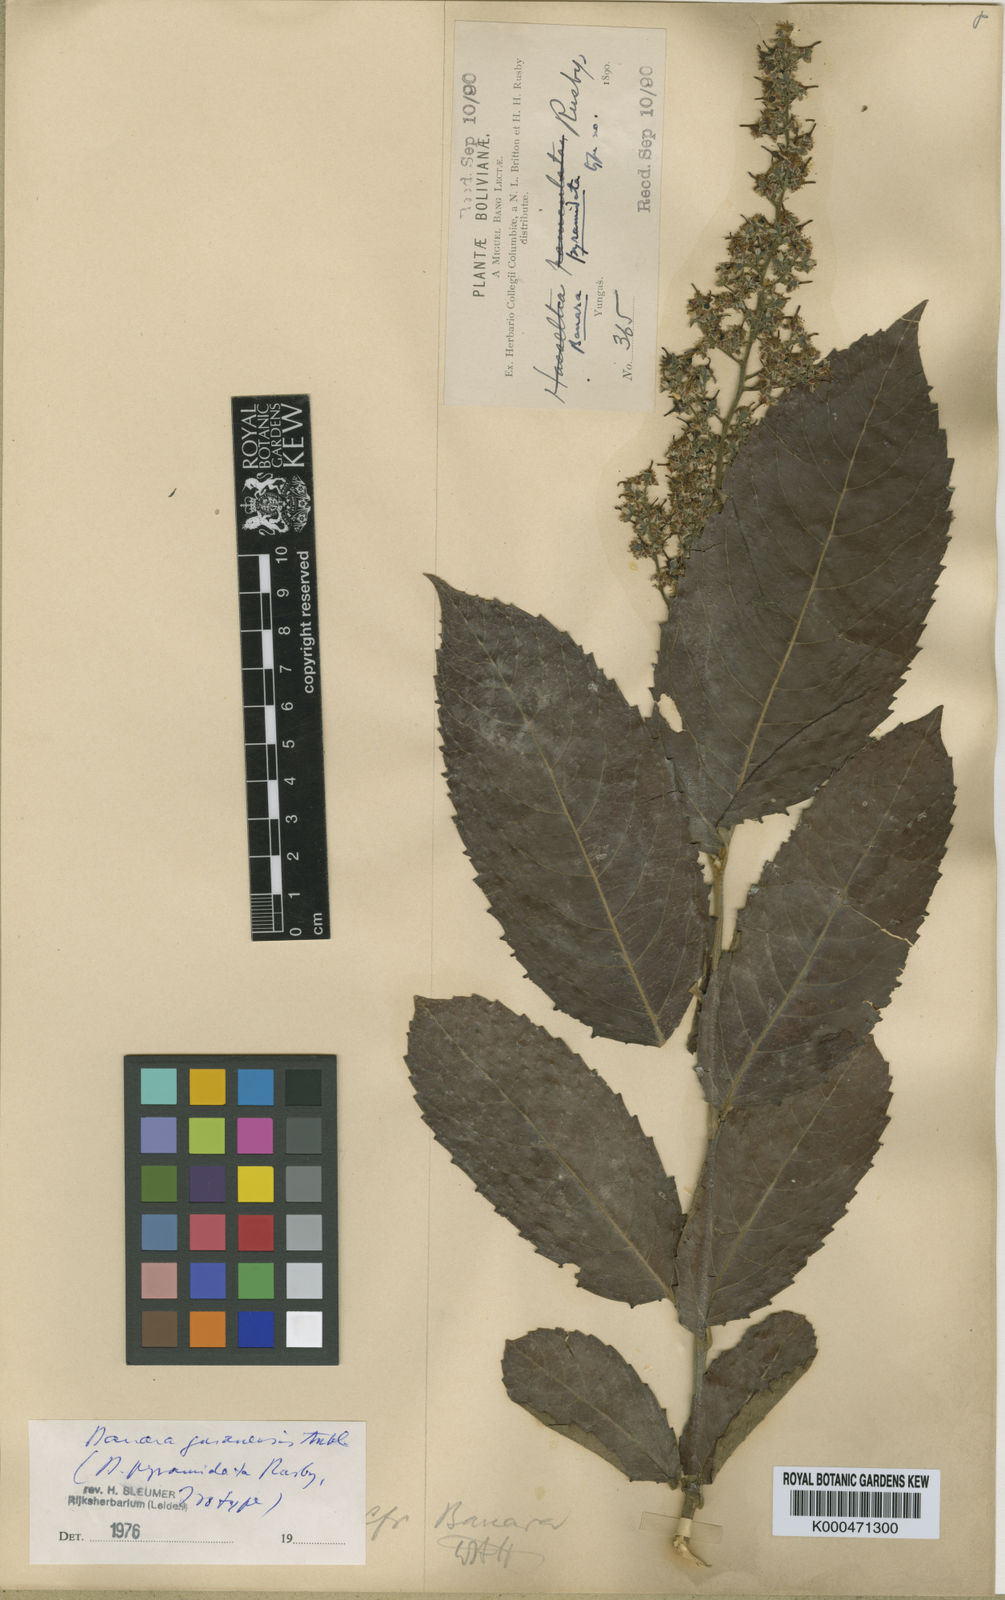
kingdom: Plantae
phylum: Tracheophyta
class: Magnoliopsida
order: Malpighiales
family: Salicaceae
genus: Banara
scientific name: Banara guianensis
